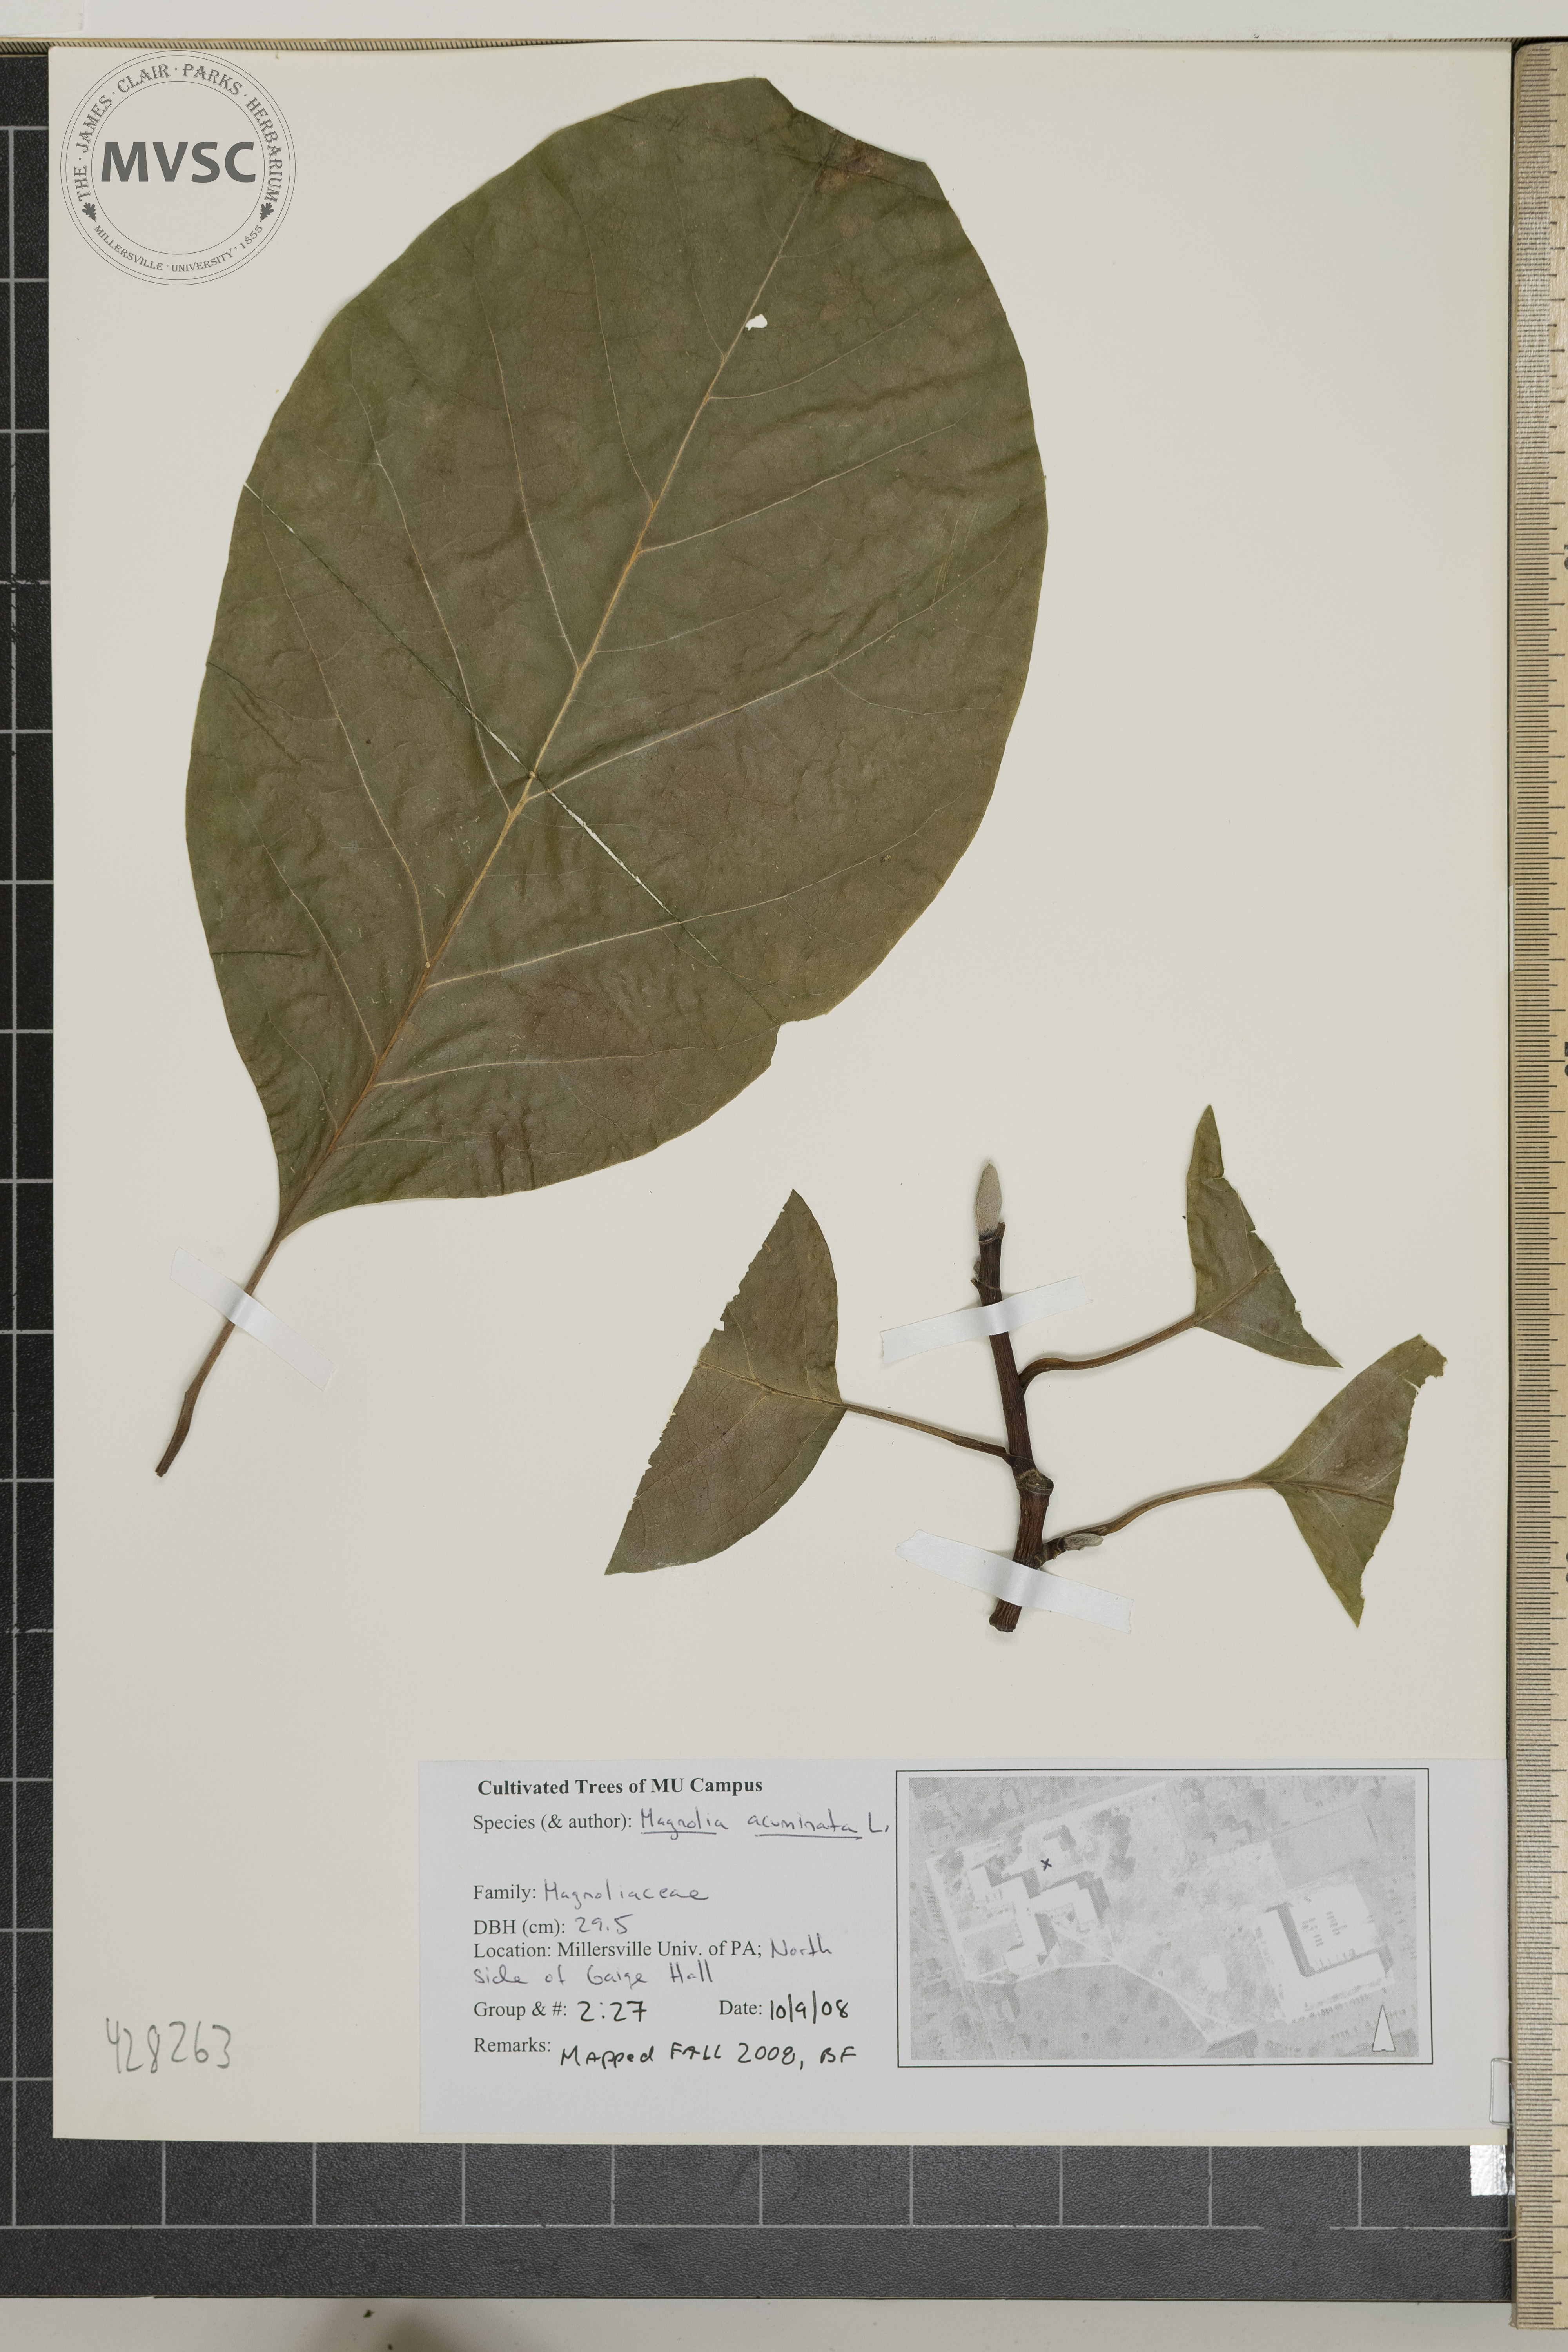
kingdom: Plantae
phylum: Tracheophyta
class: Magnoliopsida
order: Magnoliales
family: Magnoliaceae
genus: Magnolia
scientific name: Magnolia acuminata
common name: Cucumber Tree
